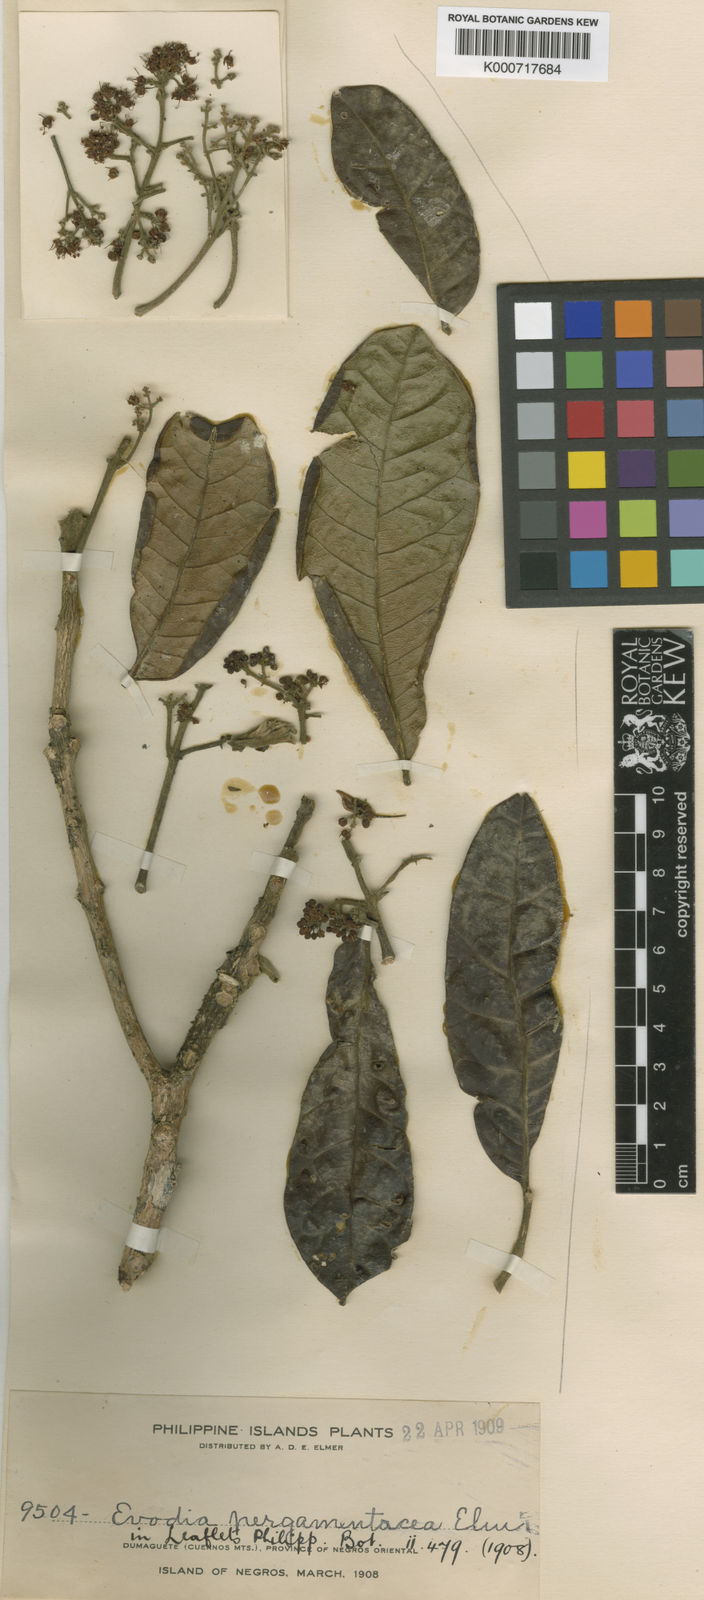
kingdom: Plantae
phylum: Tracheophyta
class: Magnoliopsida
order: Sapindales
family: Rutaceae
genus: Melicope
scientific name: Melicope pergamentacea
